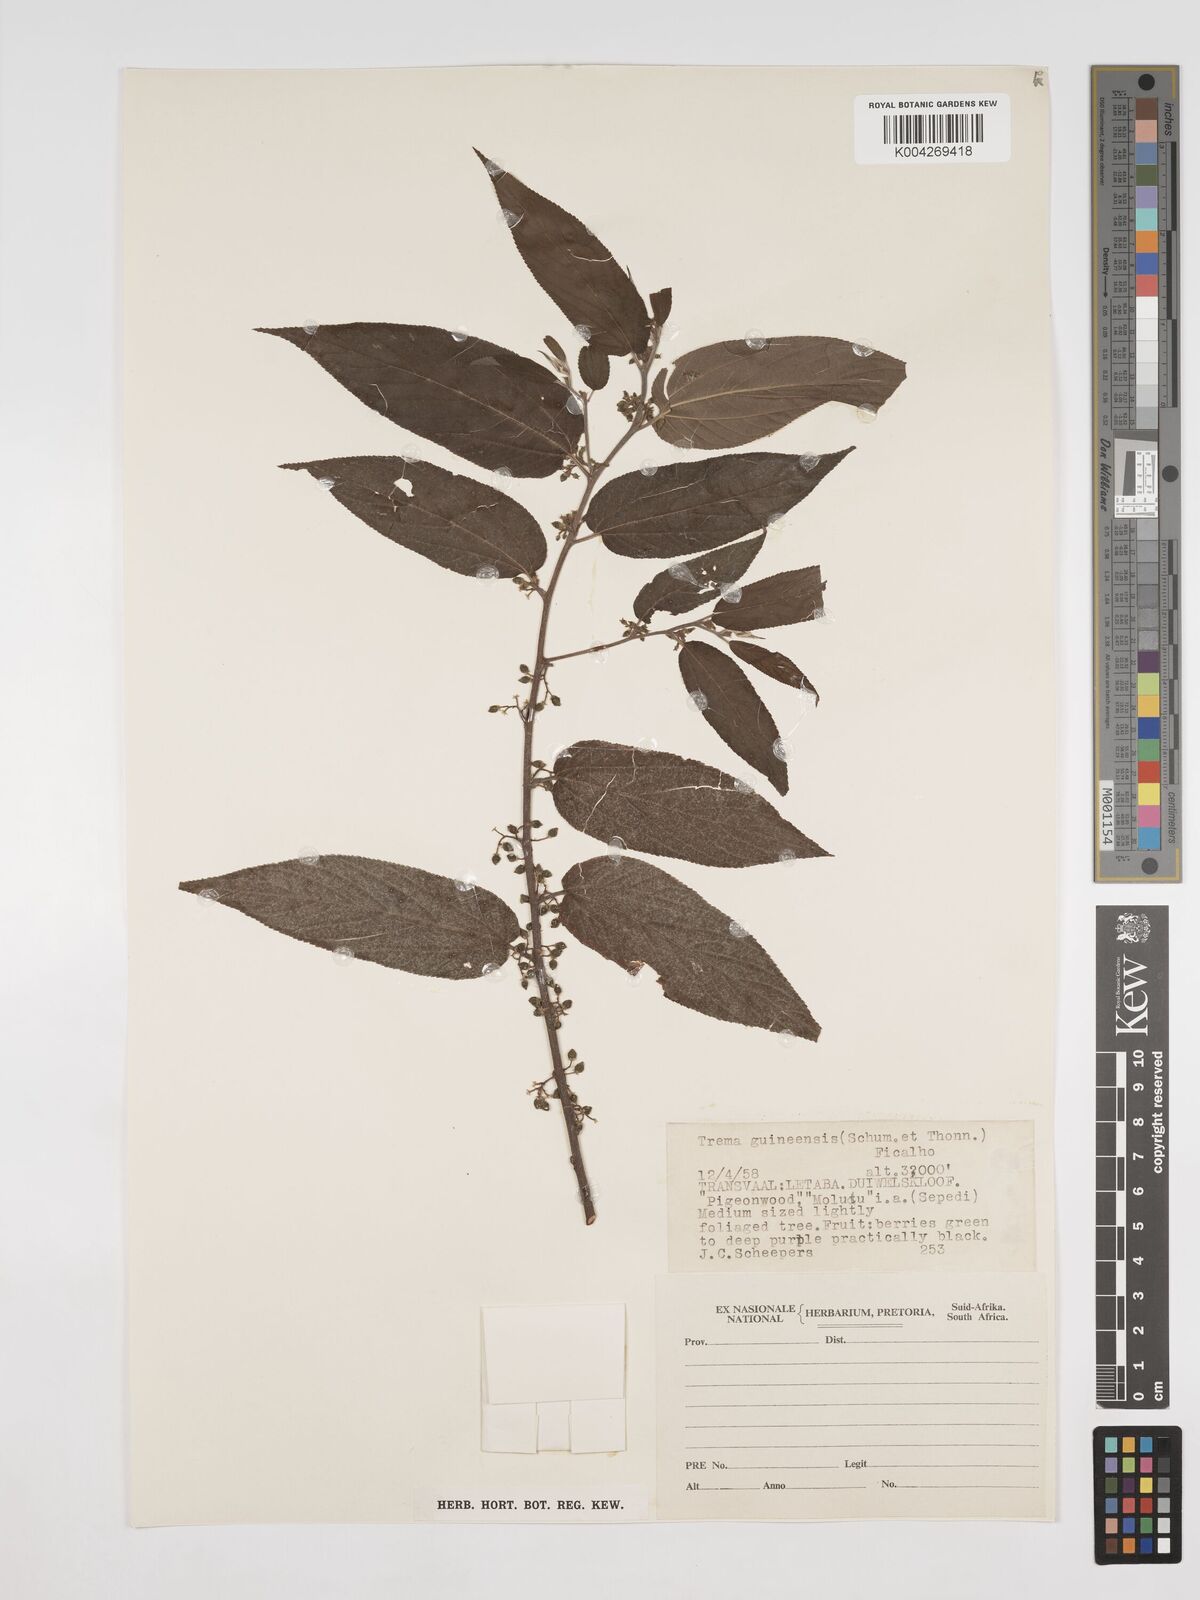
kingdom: Plantae
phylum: Tracheophyta
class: Magnoliopsida
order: Rosales
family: Cannabaceae
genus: Trema
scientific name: Trema orientale
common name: Indian charcoal tree
